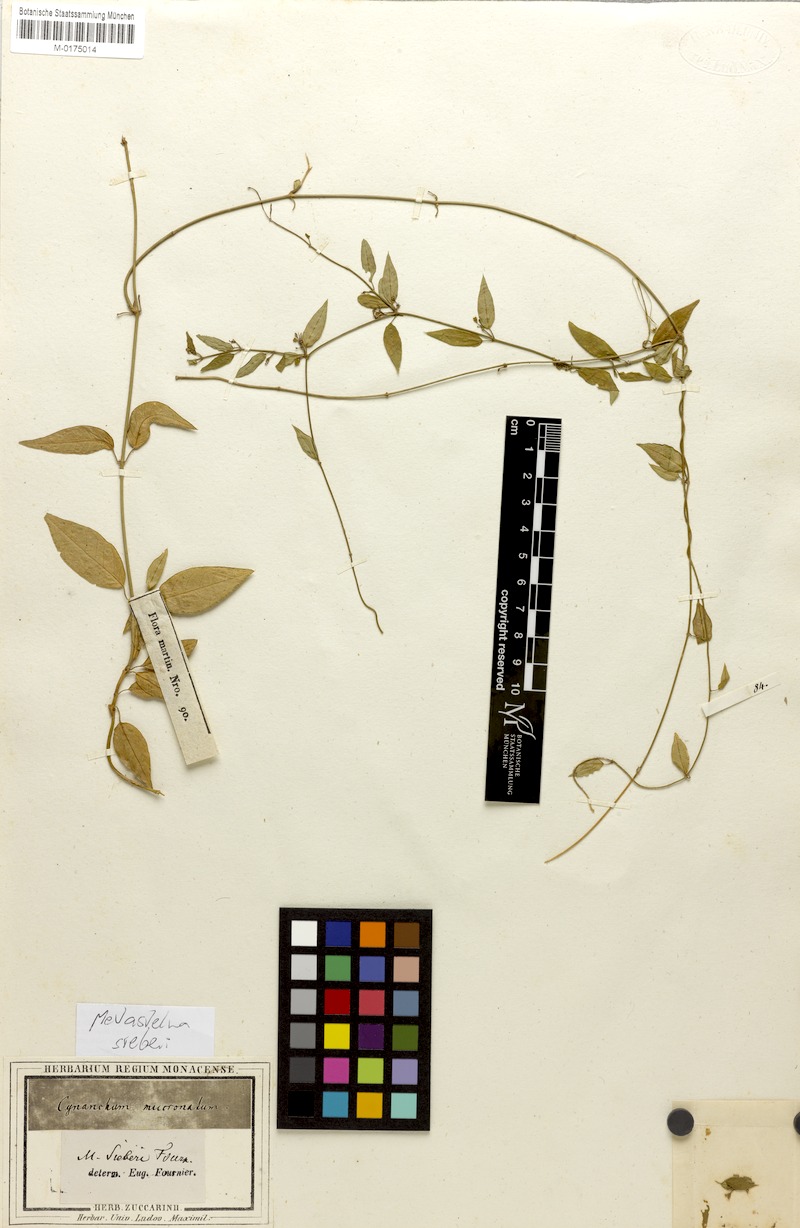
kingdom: Plantae
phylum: Tracheophyta
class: Magnoliopsida
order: Gentianales
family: Apocynaceae
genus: Metastelma
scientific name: Metastelma
